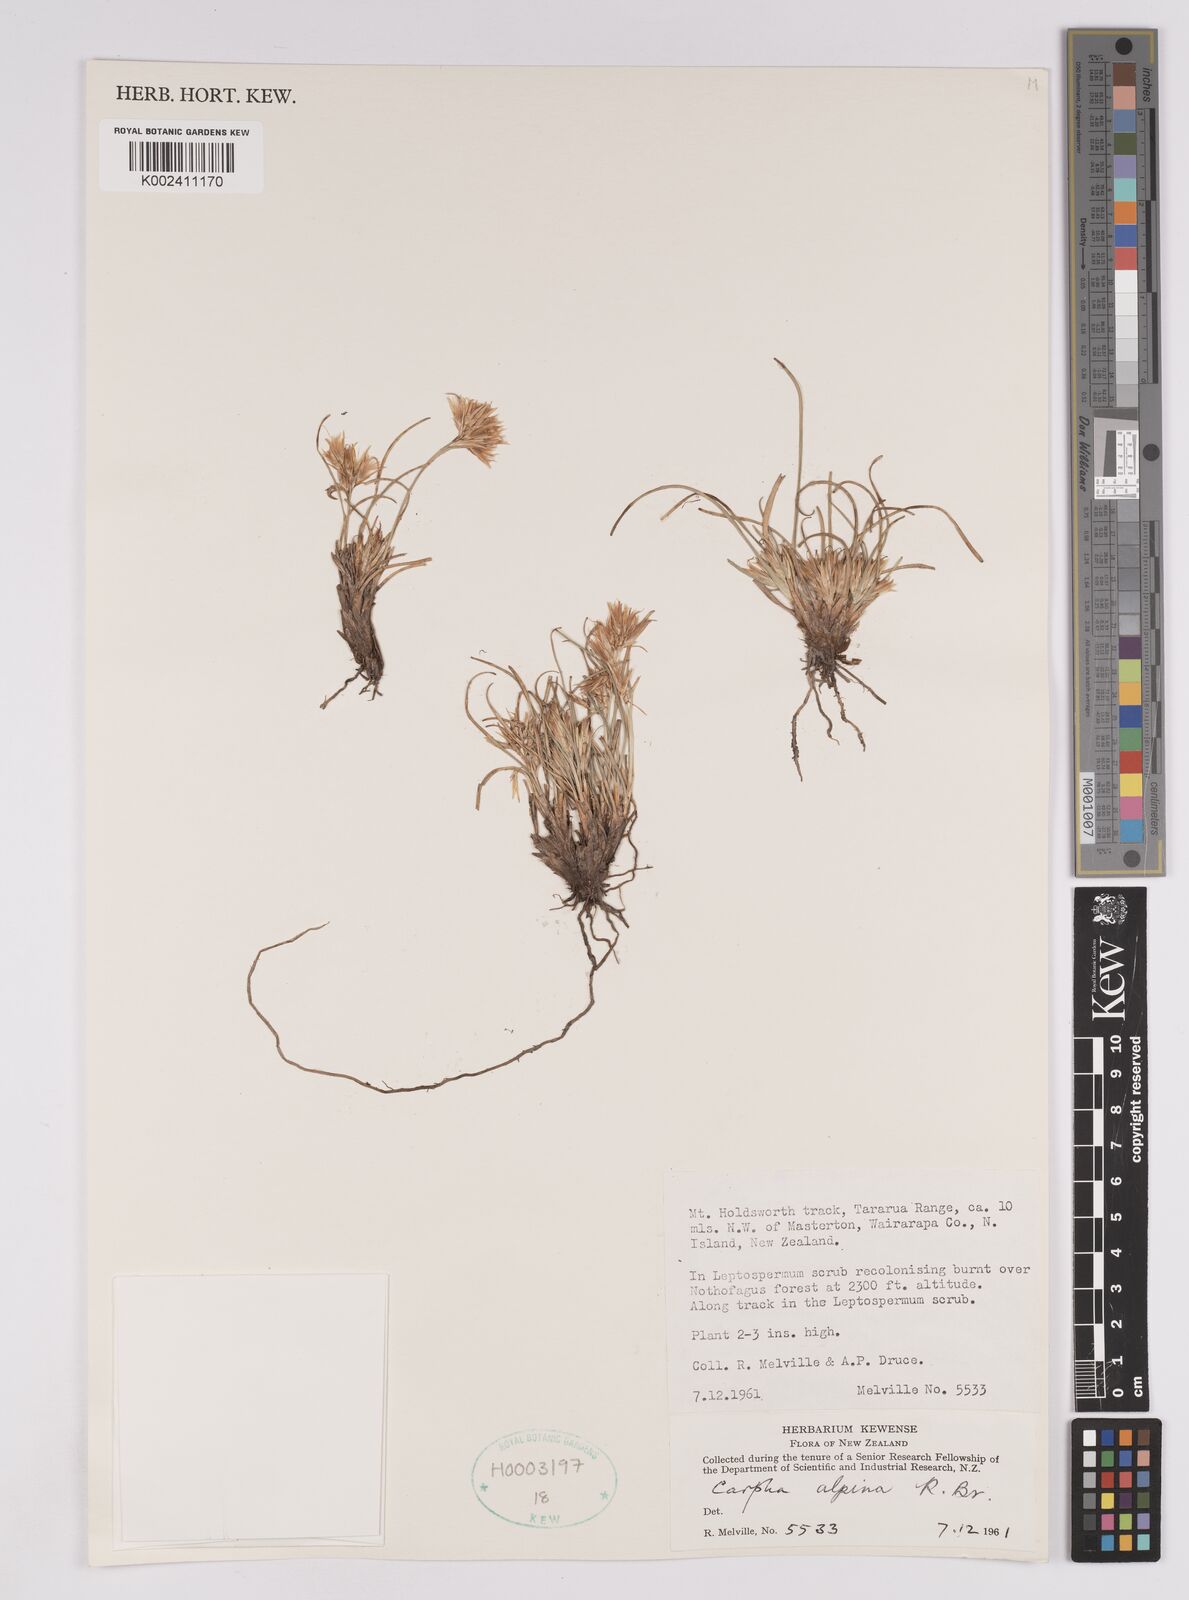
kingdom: Plantae
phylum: Tracheophyta
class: Liliopsida
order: Poales
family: Cyperaceae
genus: Carpha
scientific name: Carpha alpina
